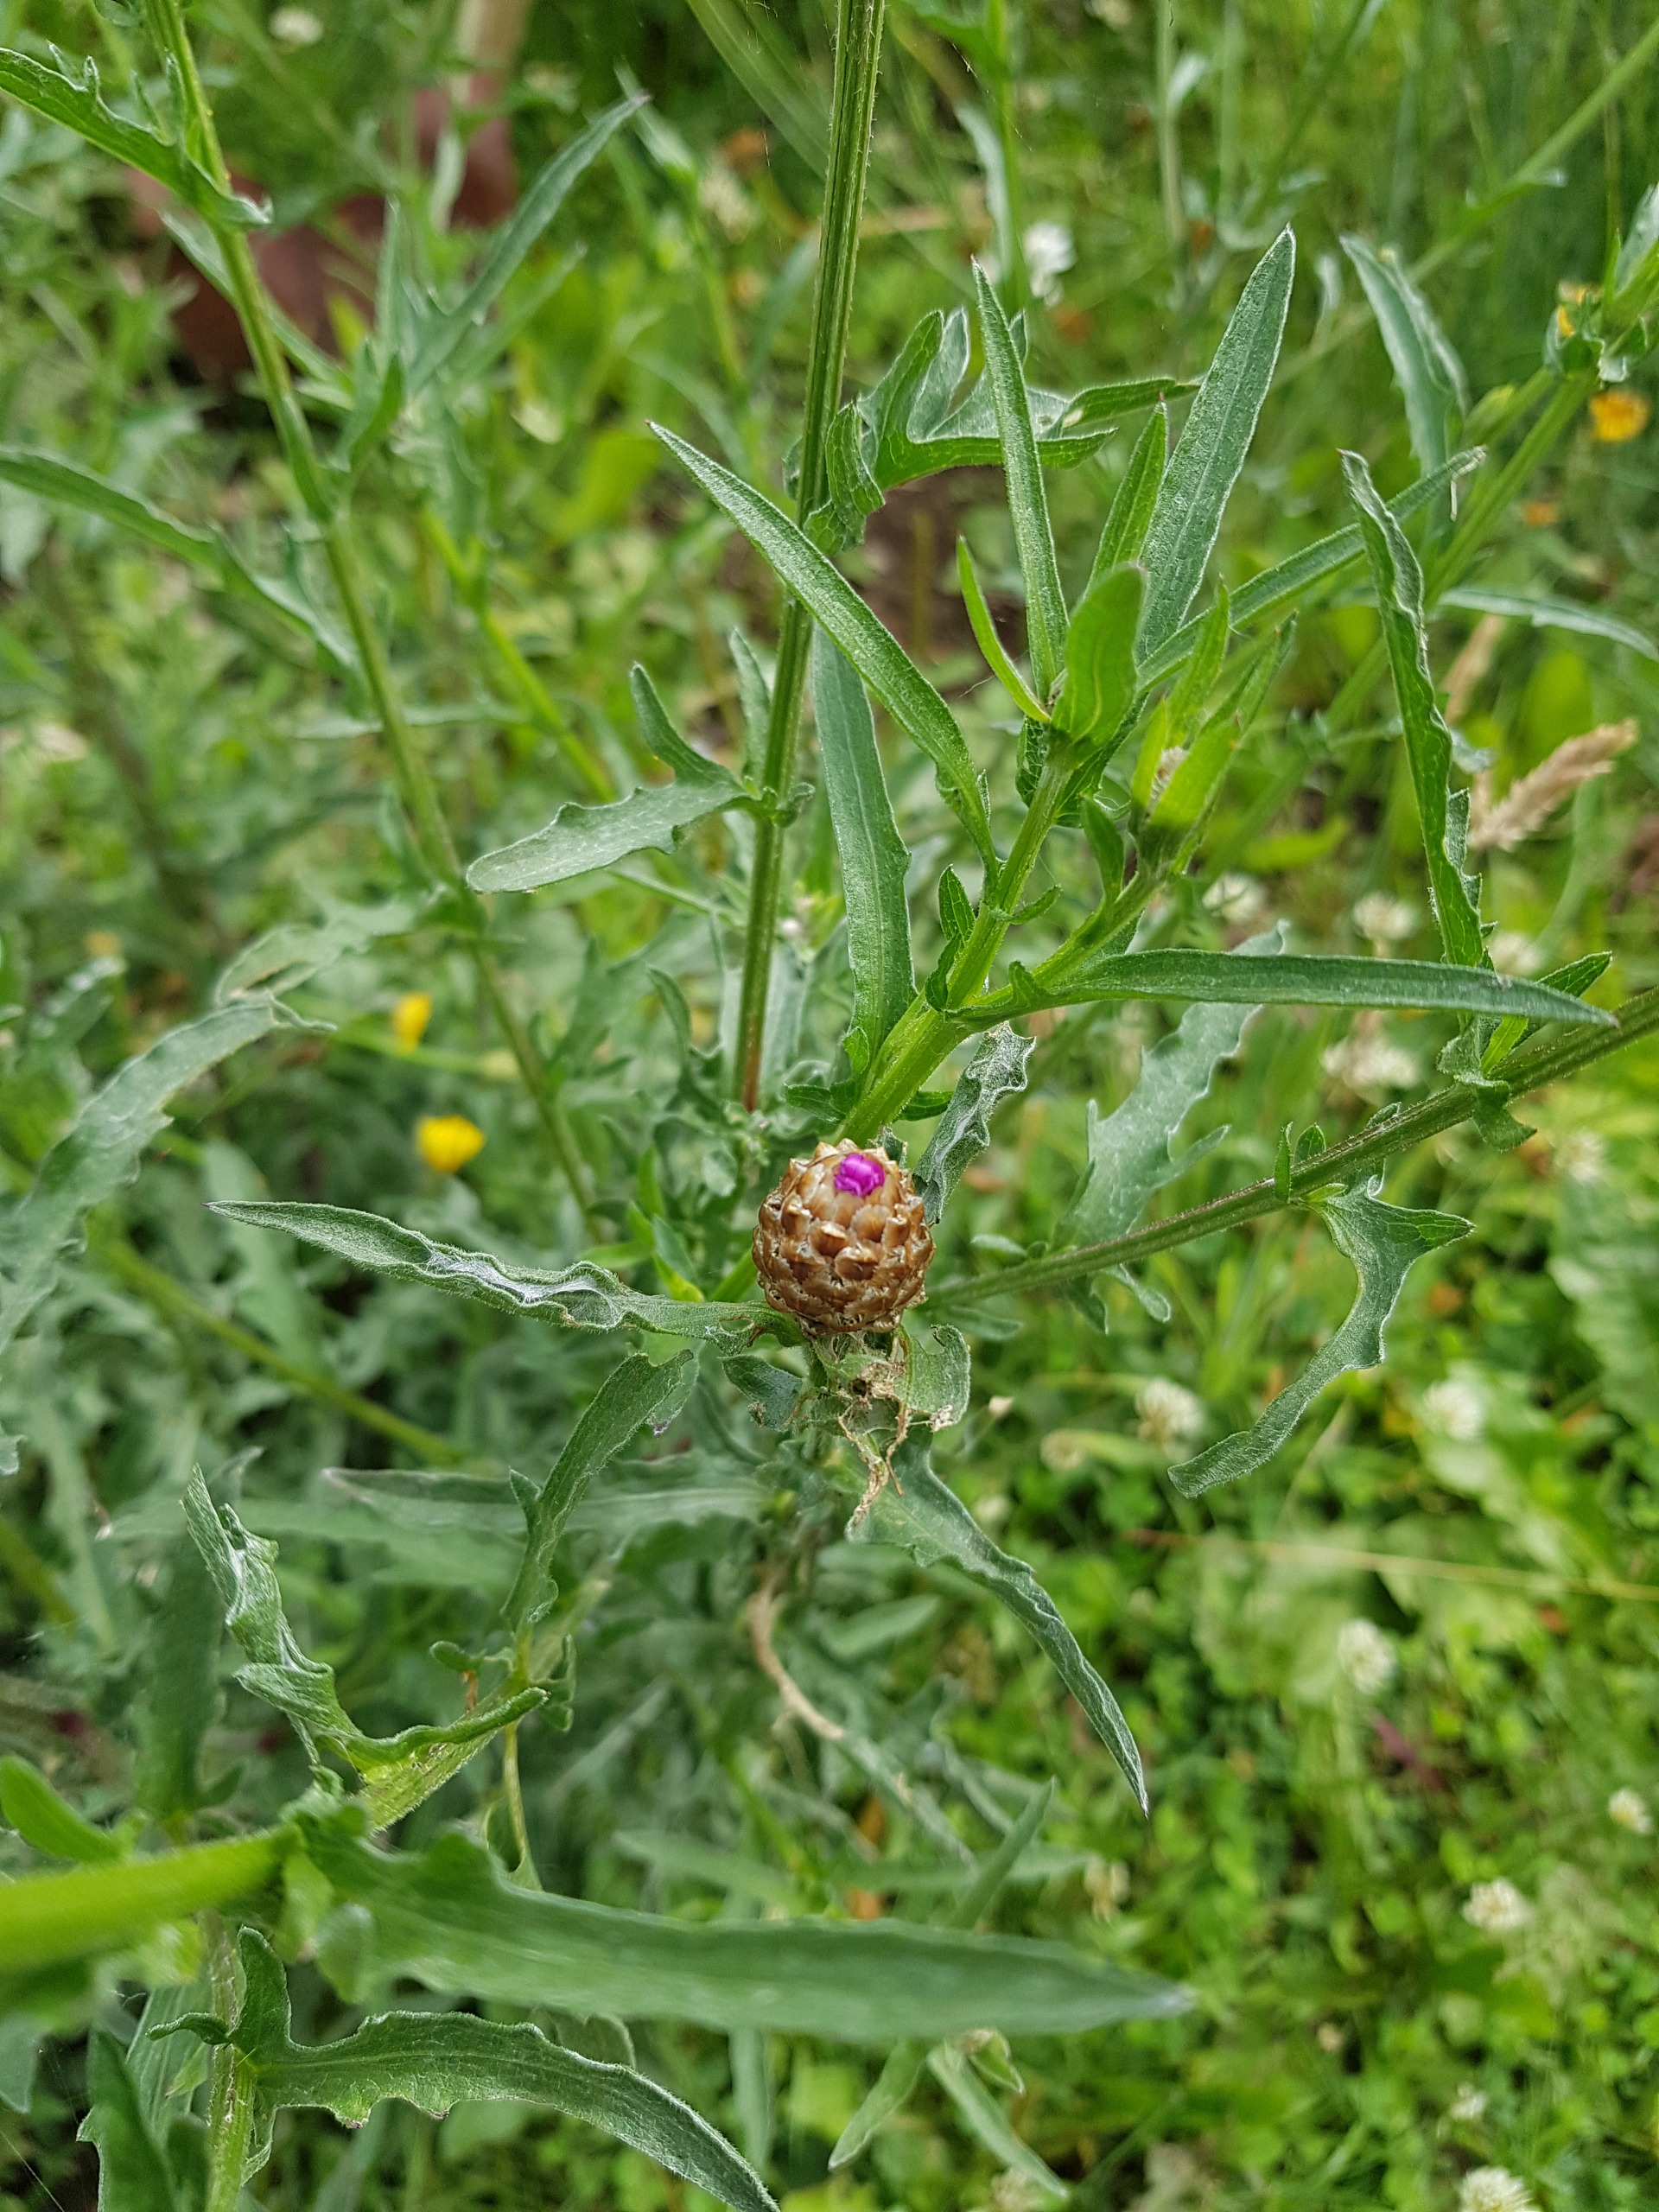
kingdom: Plantae
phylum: Tracheophyta
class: Magnoliopsida
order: Asterales
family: Asteraceae
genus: Centaurea
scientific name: Centaurea jacea
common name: Almindelig knopurt
